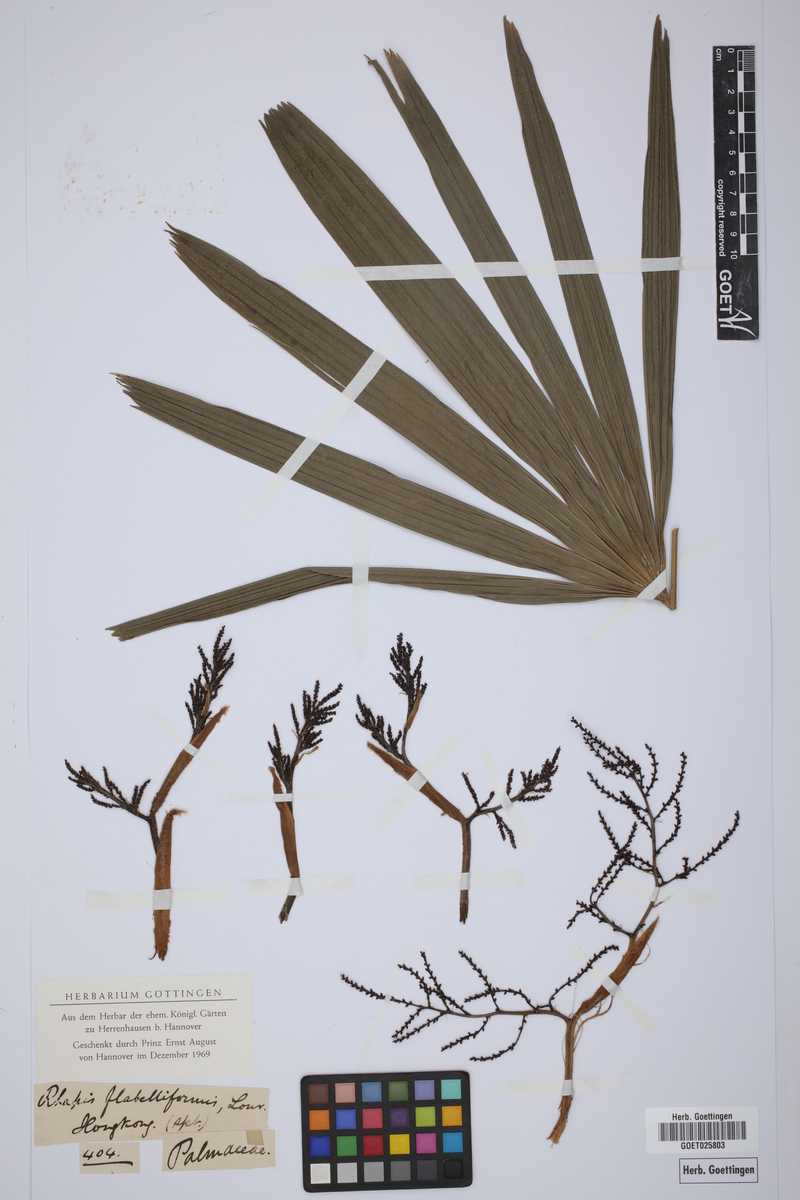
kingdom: Plantae
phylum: Tracheophyta
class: Liliopsida
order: Arecales
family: Arecaceae
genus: Rhapis
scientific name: Rhapis excelsa
